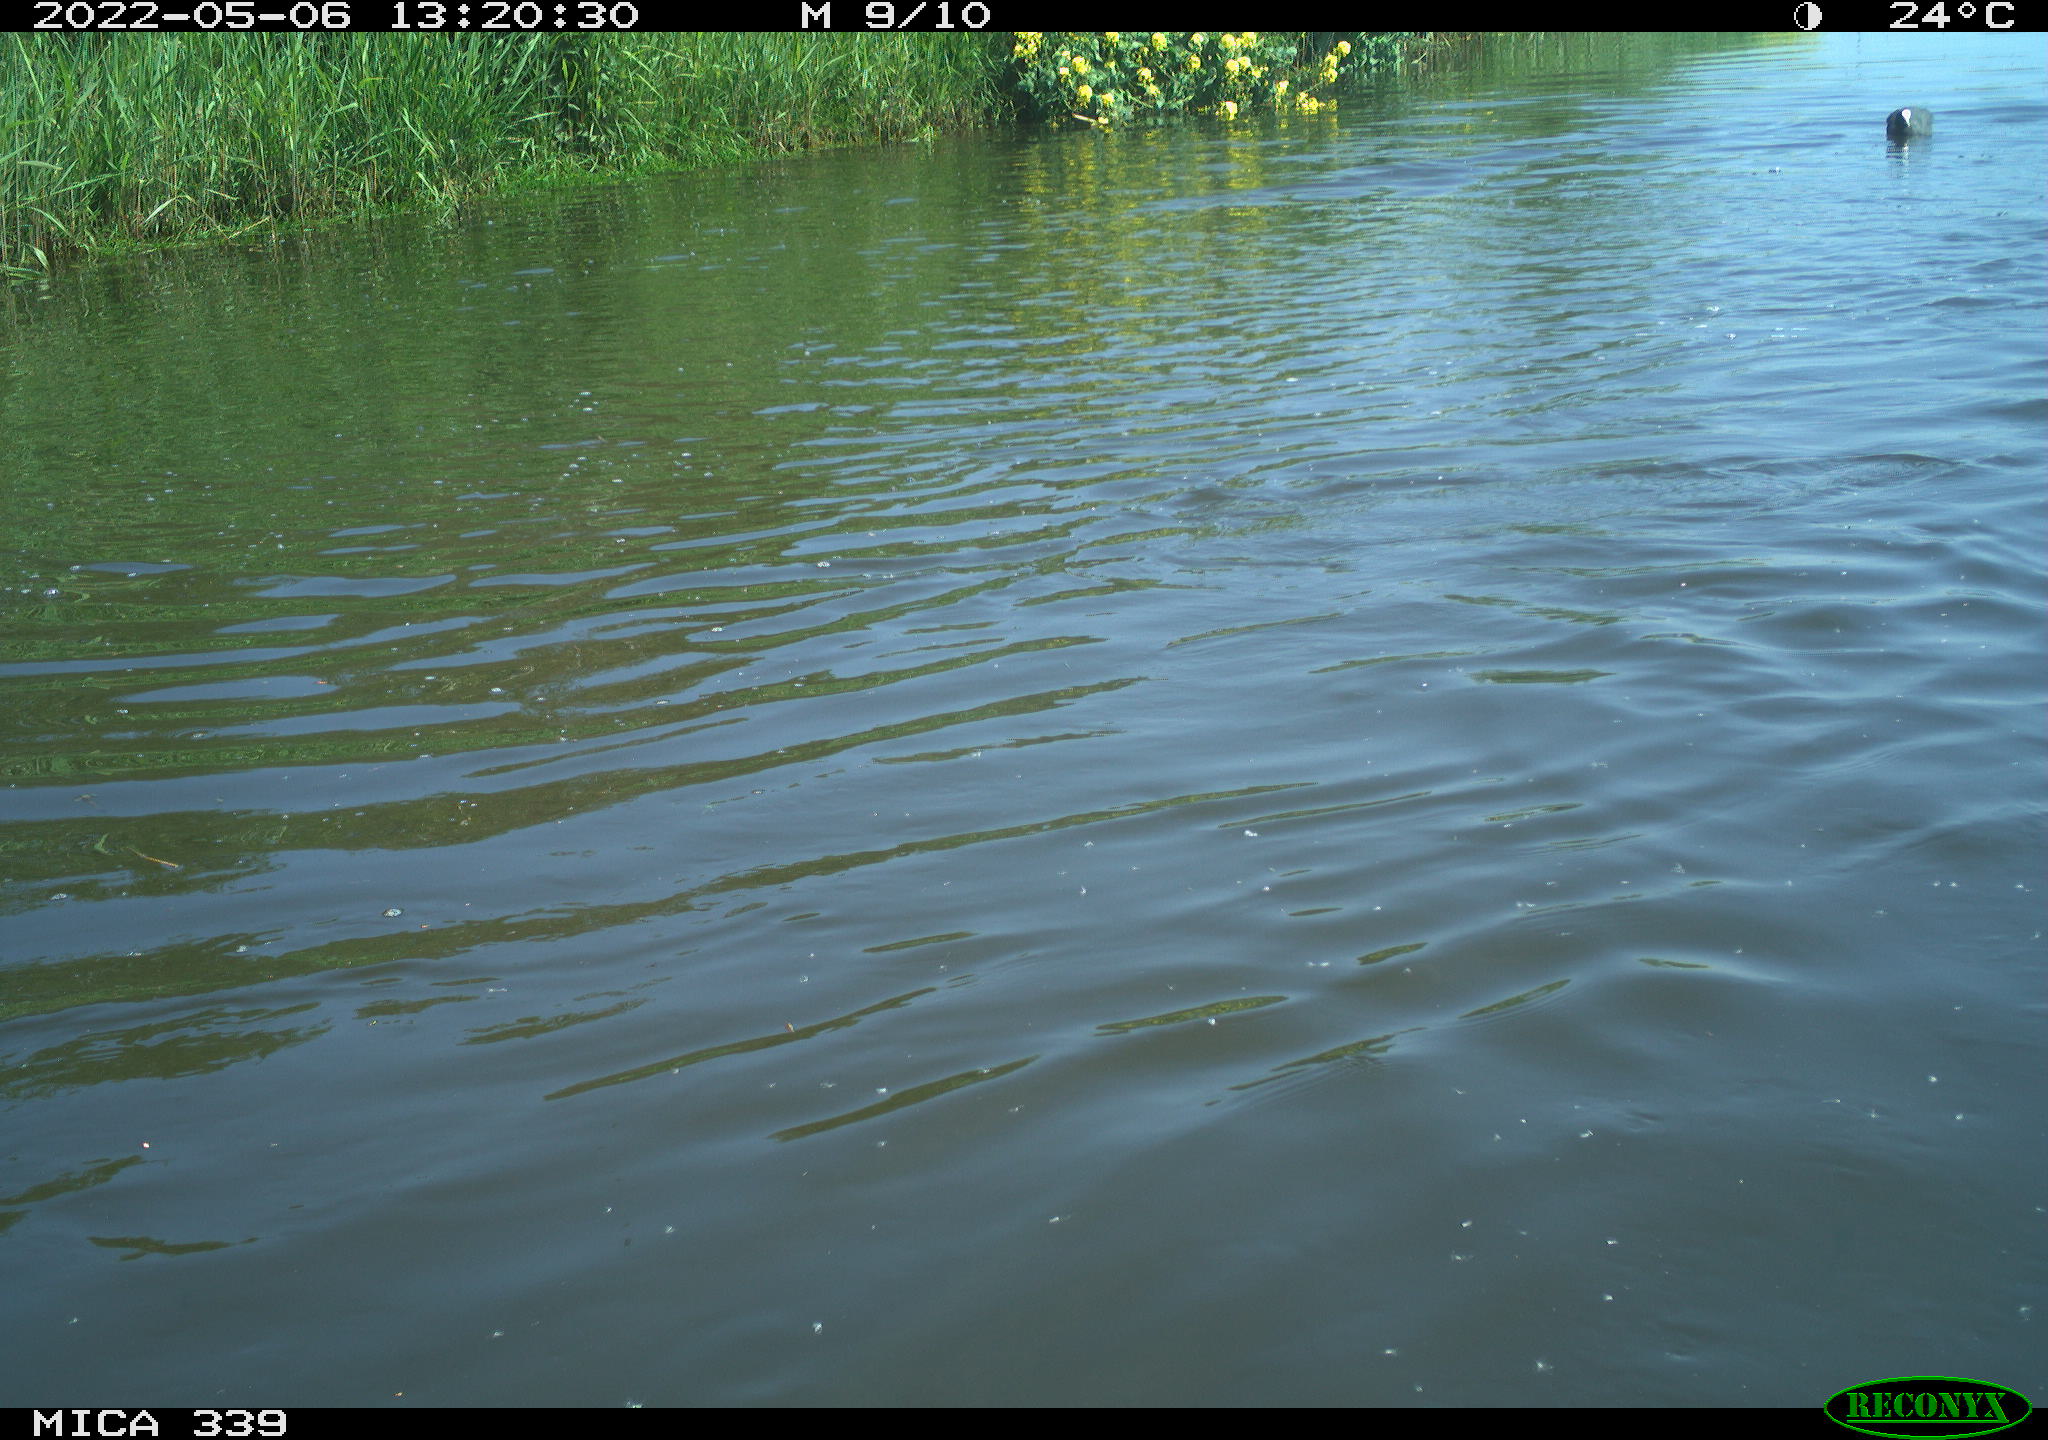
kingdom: Animalia
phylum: Chordata
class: Aves
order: Anseriformes
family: Anatidae
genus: Anas
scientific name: Anas platyrhynchos
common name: Mallard
